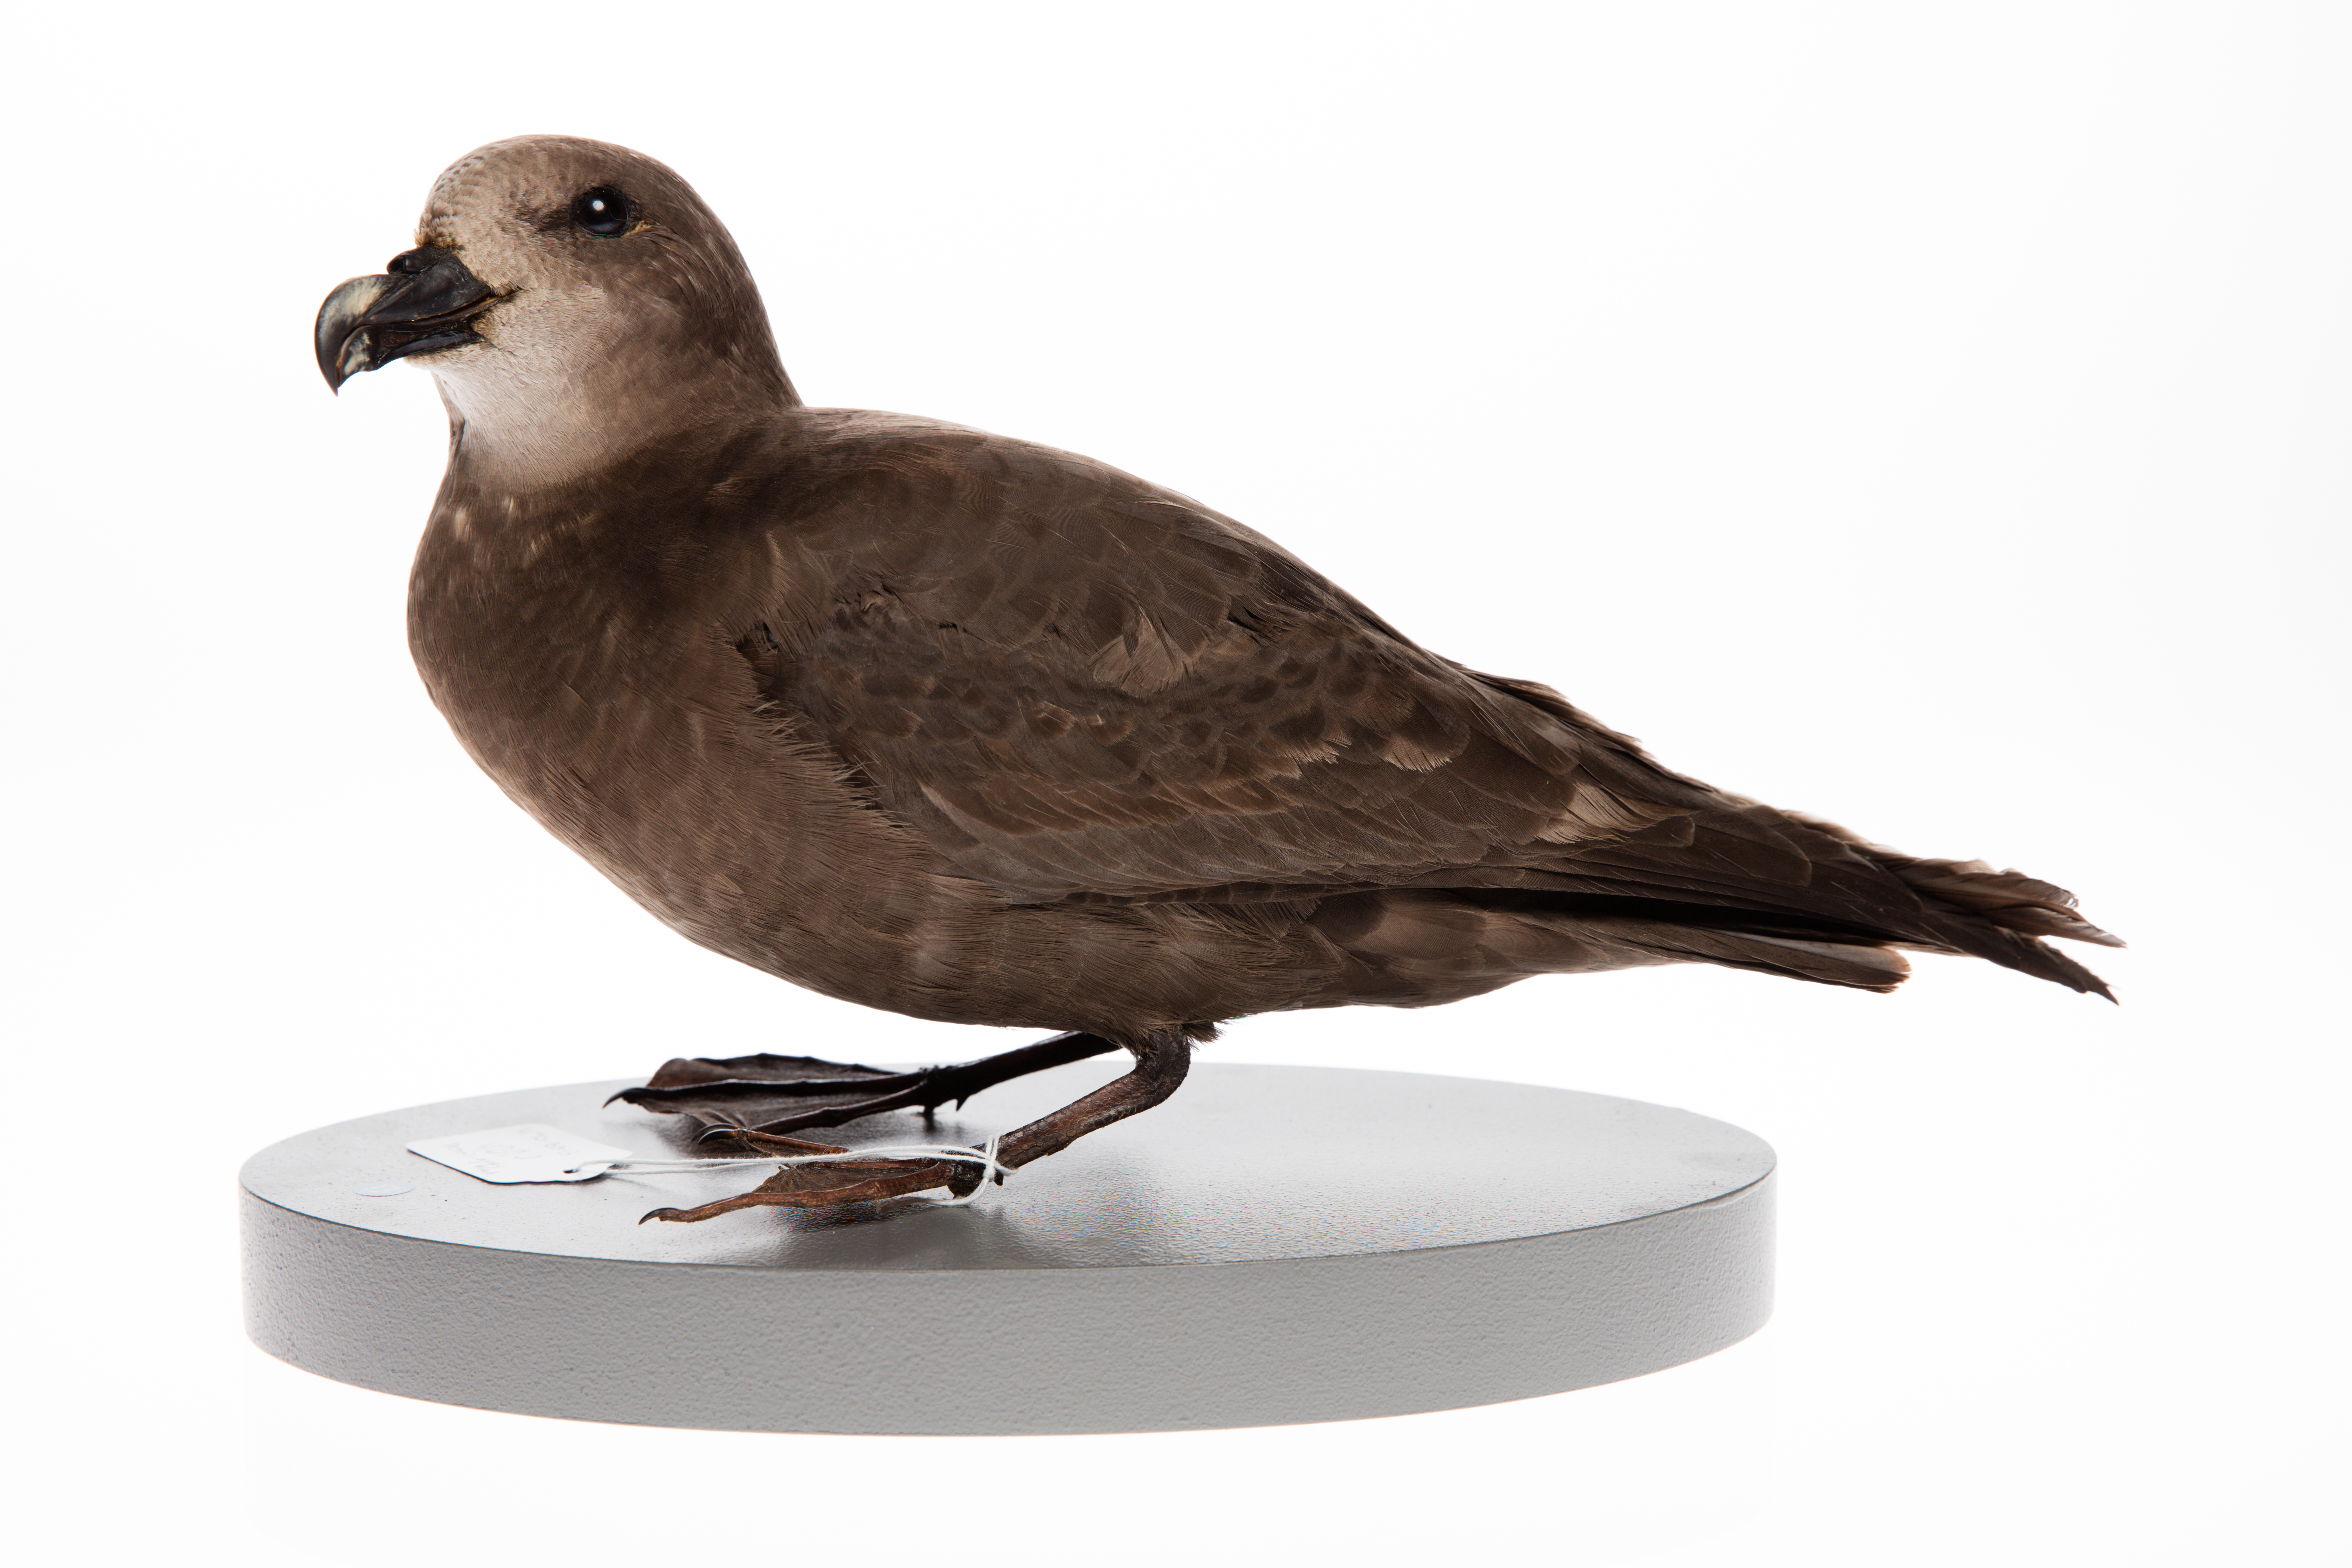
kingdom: Animalia
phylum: Chordata
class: Aves
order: Procellariiformes
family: Procellariidae
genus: Pterodroma
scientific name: Pterodroma macroptera
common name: Great-winged petrel
